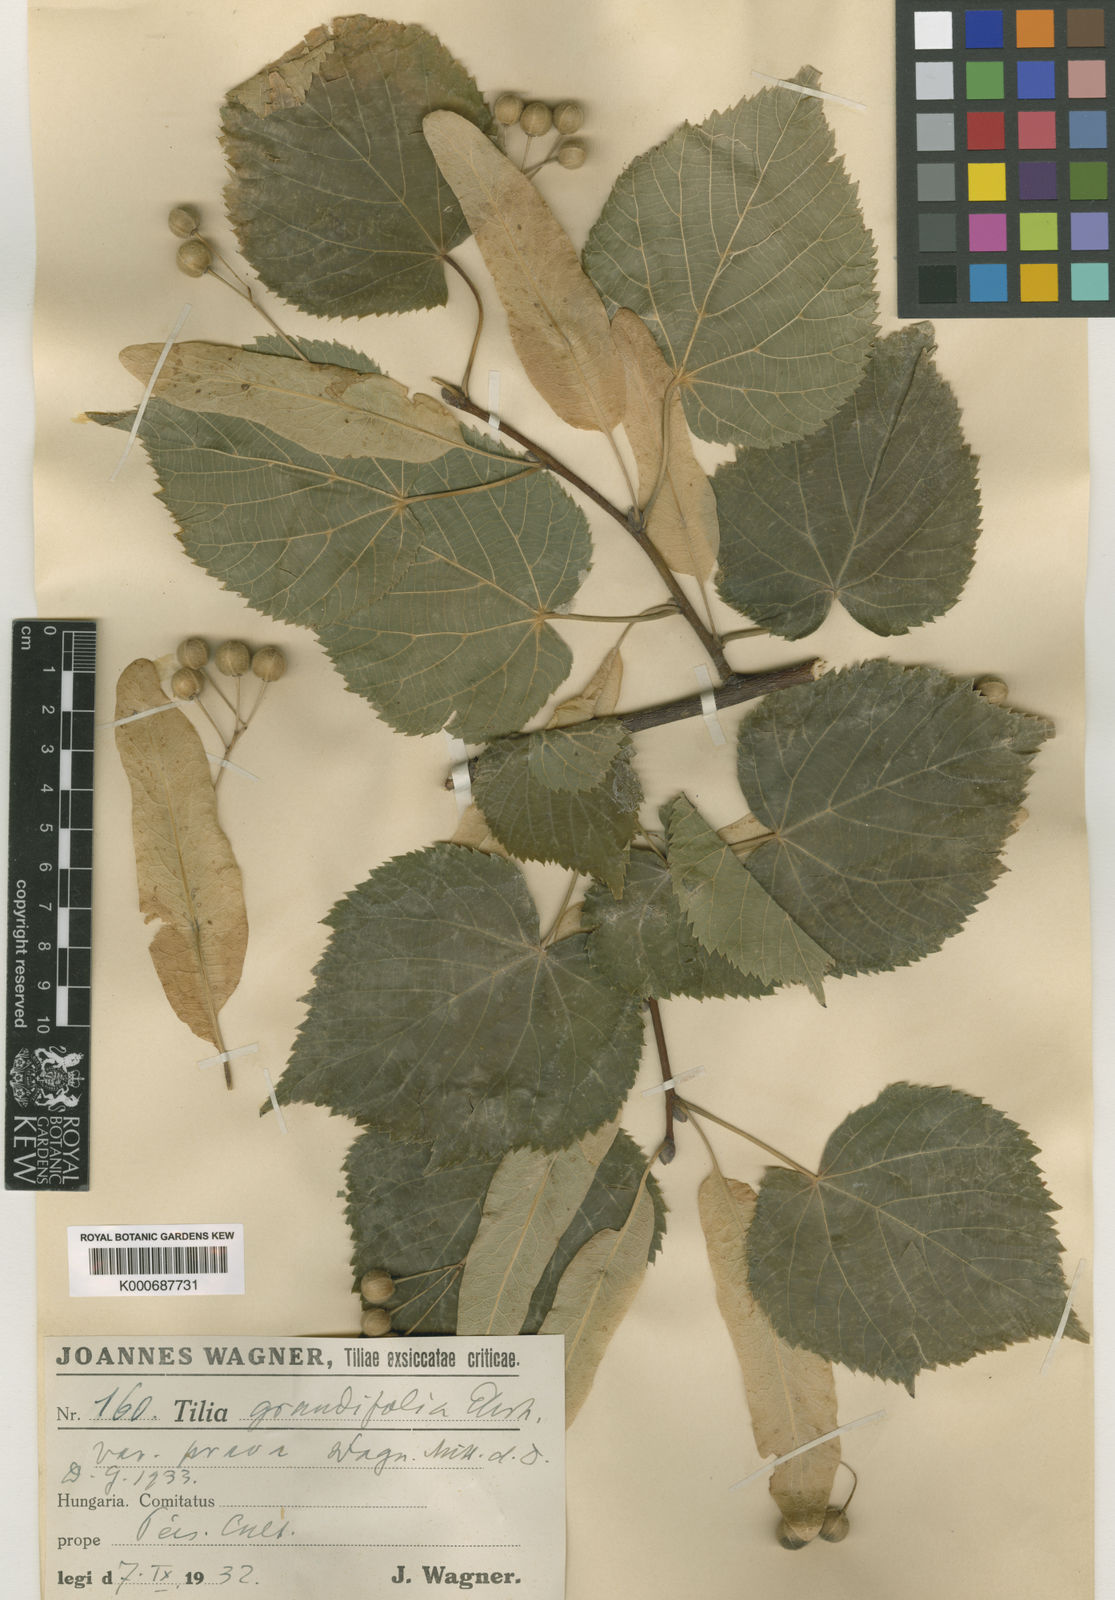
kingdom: Plantae
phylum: Tracheophyta
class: Magnoliopsida
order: Malvales
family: Malvaceae
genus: Tilia
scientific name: Tilia platyphyllos
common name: Large-leaved lime
